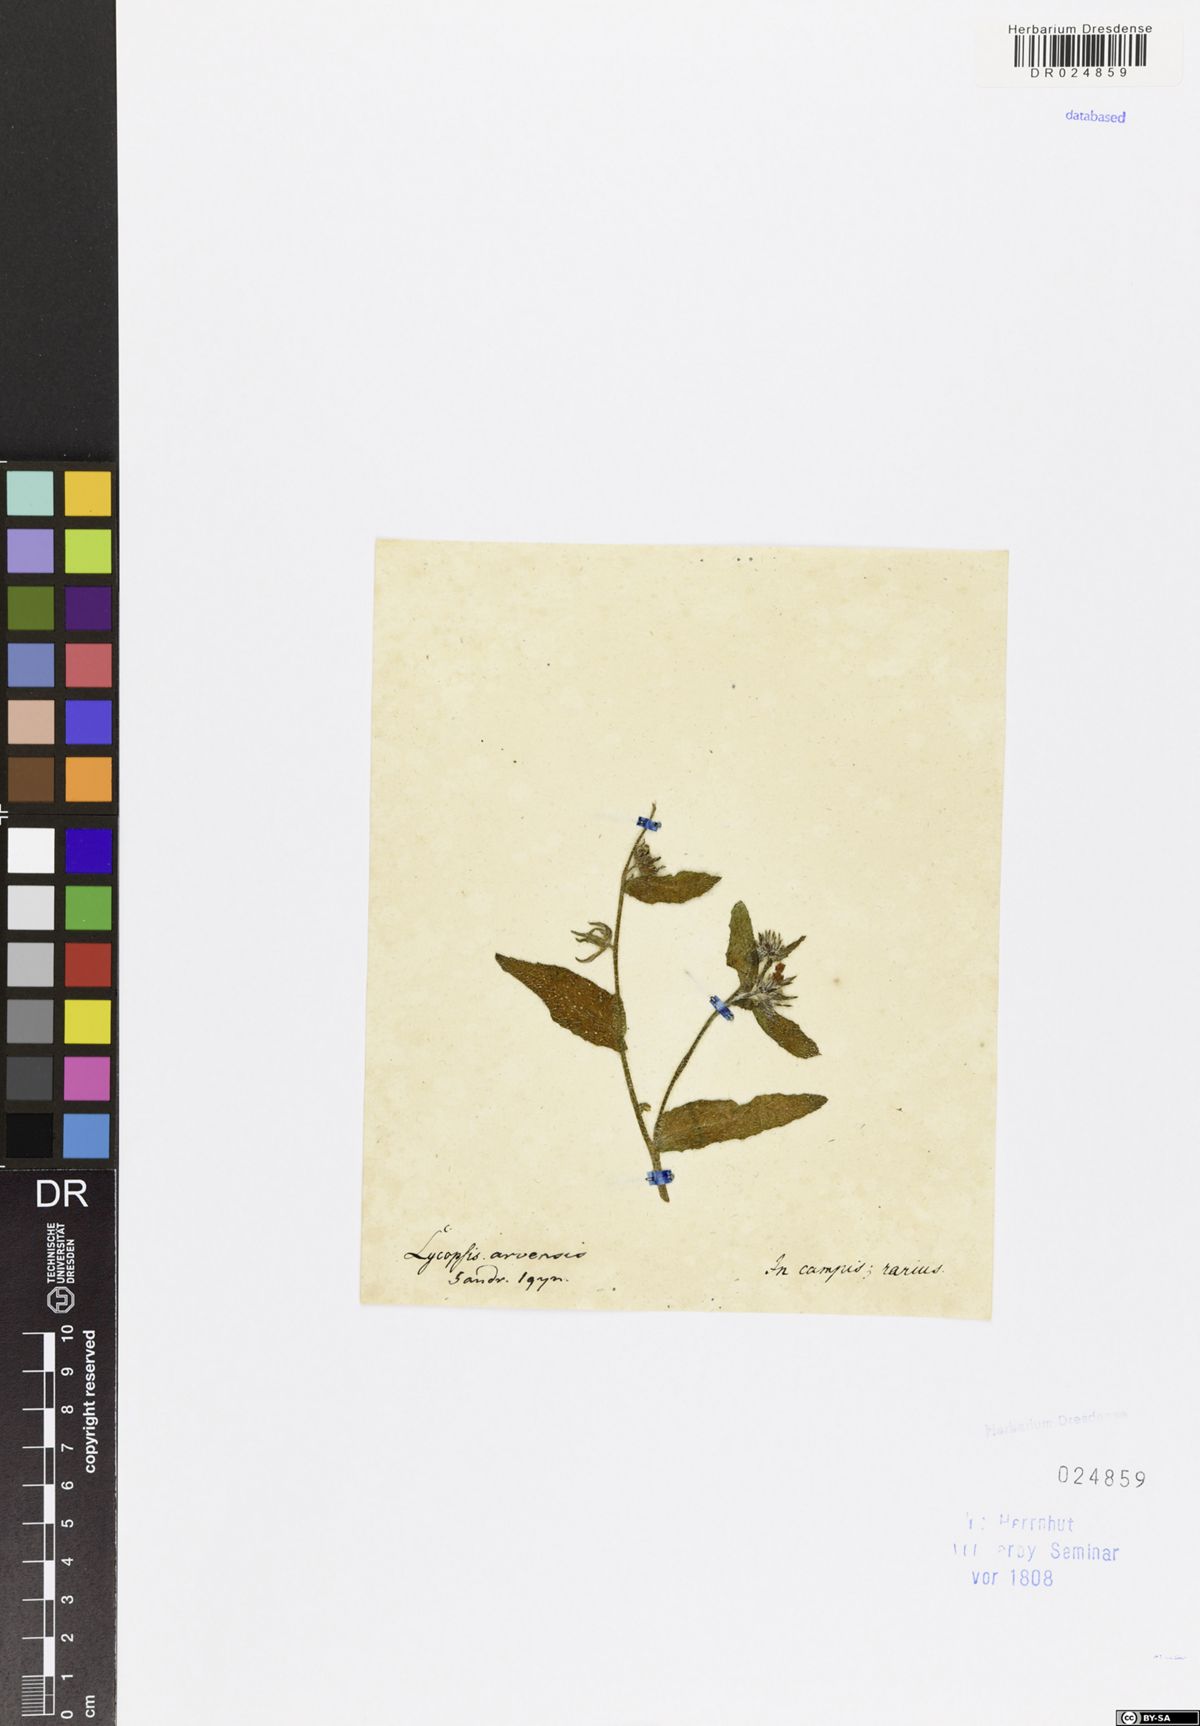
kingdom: Plantae
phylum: Tracheophyta
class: Magnoliopsida
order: Boraginales
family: Boraginaceae
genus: Lycopsis
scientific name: Lycopsis arvensis
